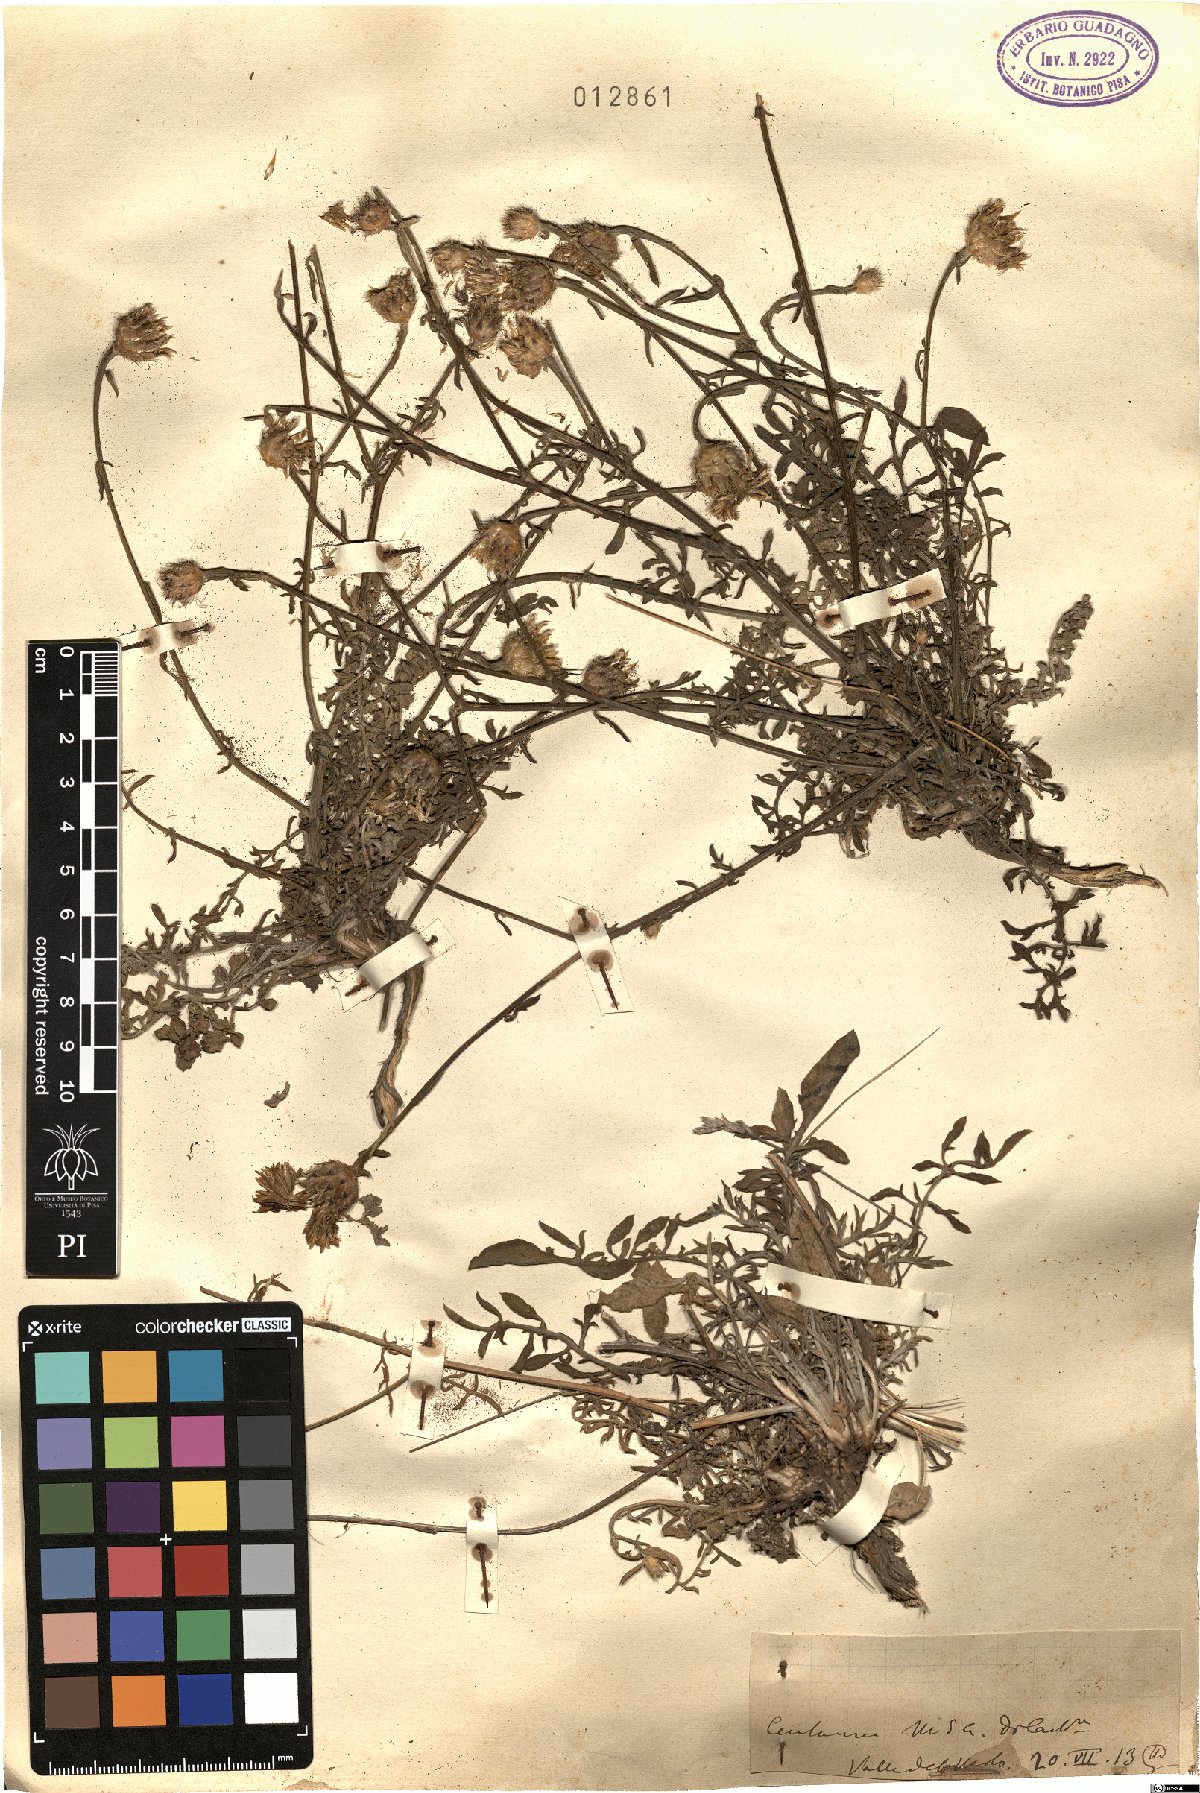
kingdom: Plantae
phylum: Tracheophyta
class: Magnoliopsida
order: Asterales
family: Asteraceae
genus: Centaurea
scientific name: Centaurea
